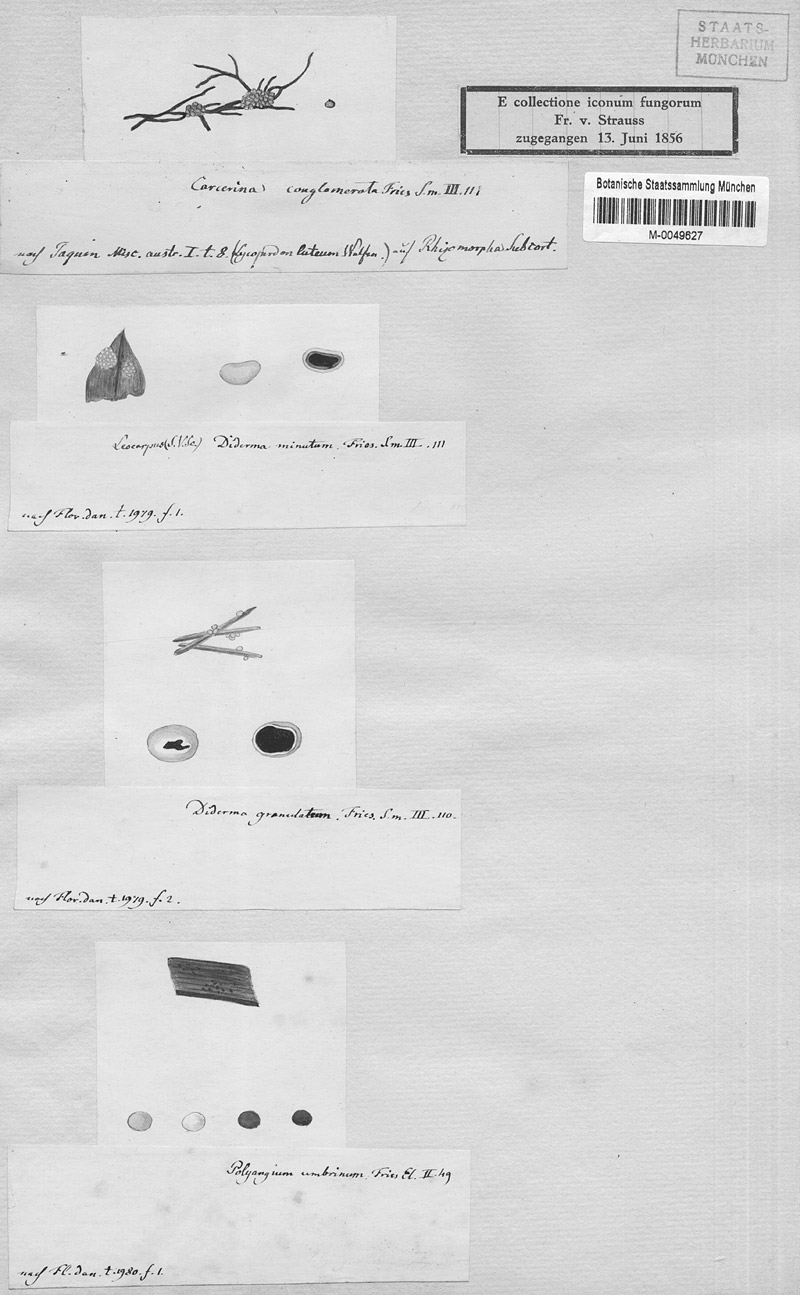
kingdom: Protozoa
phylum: Mycetozoa
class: Myxomycetes
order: Physarales
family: Physaraceae
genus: Physarum
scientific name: Physarum conglomeratum
